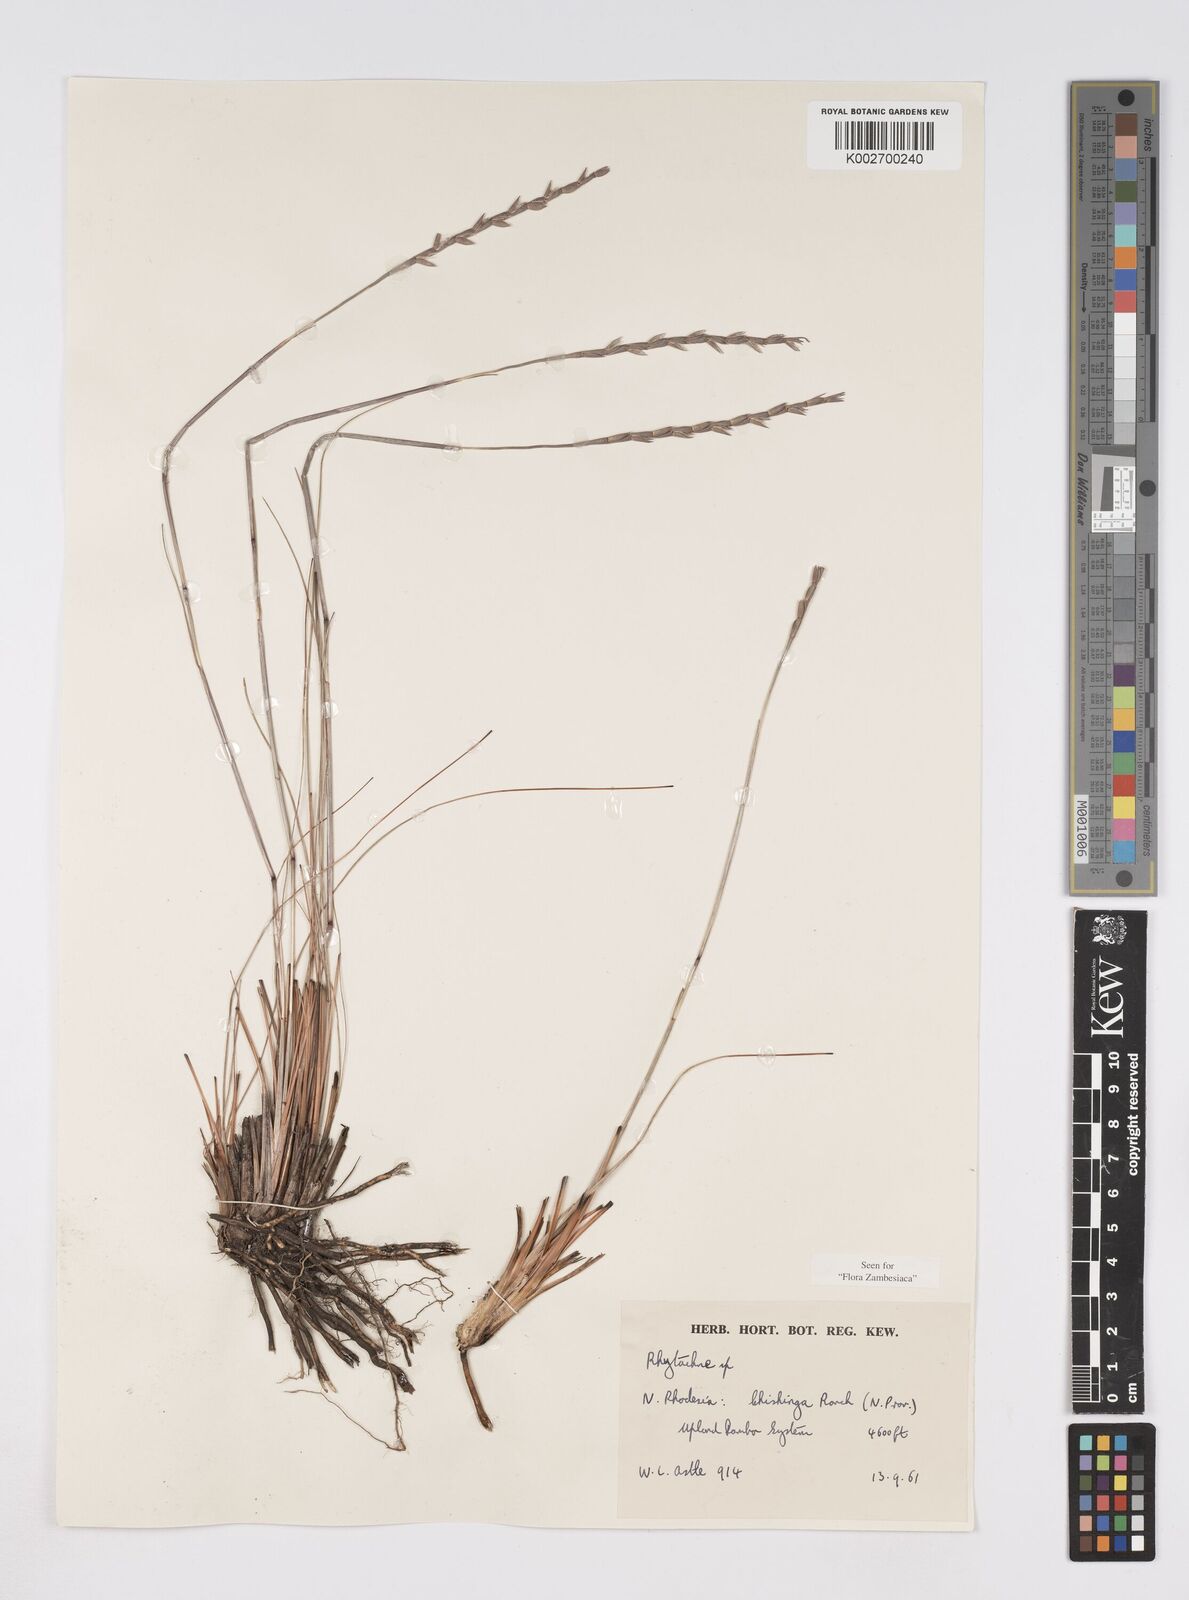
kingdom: Plantae
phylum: Tracheophyta
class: Liliopsida
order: Poales
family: Poaceae
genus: Rhytachne
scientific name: Rhytachne rottboellioides
